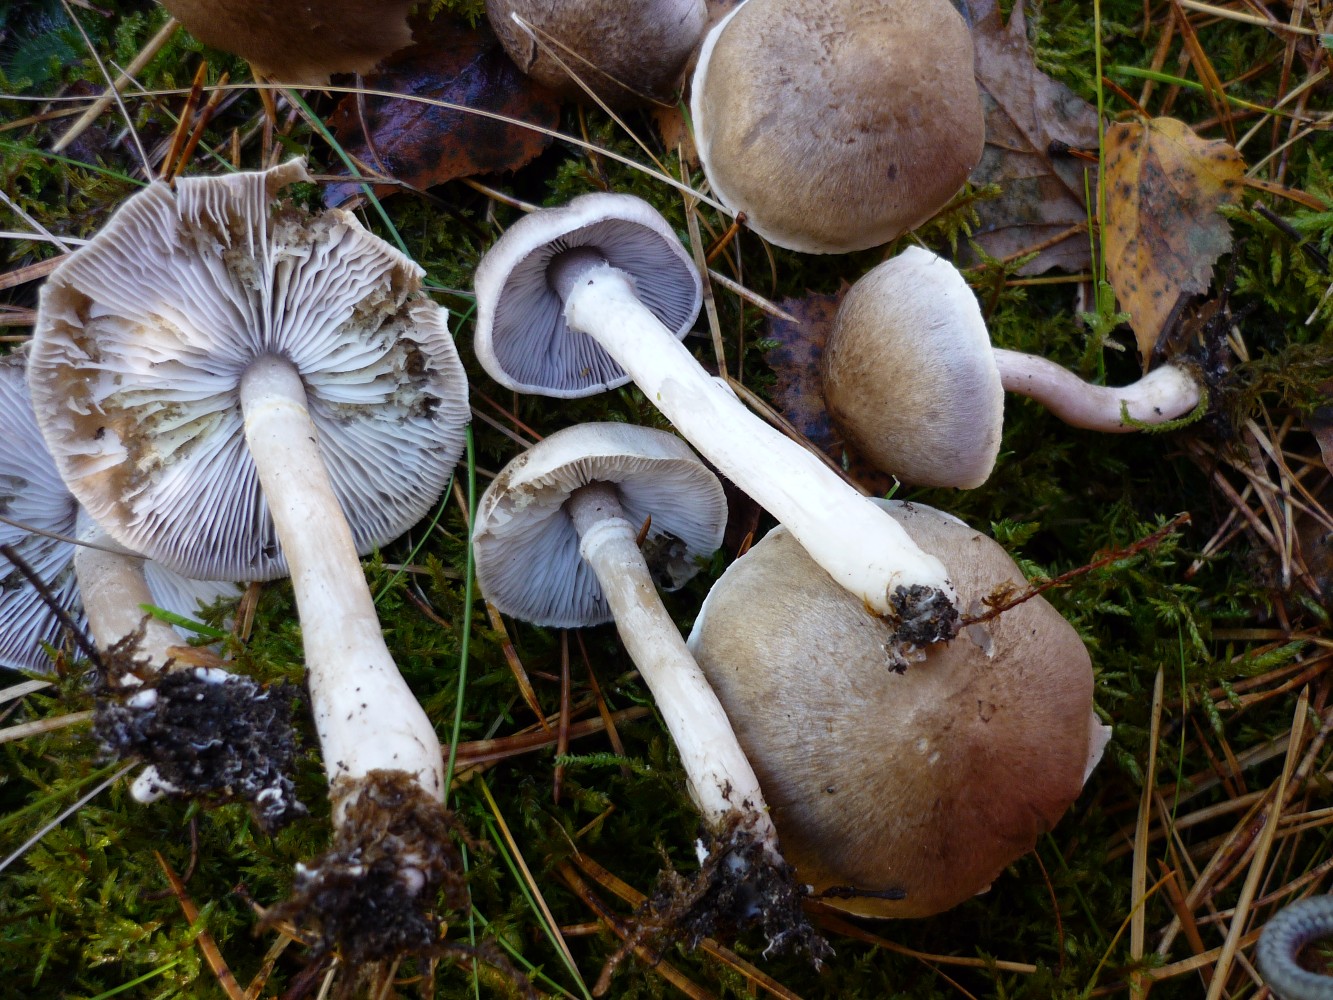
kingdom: Fungi
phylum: Basidiomycota
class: Agaricomycetes
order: Agaricales
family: Tricholomataceae
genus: Tricholoma
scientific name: Tricholoma cingulatum
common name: ring-ridderhat
